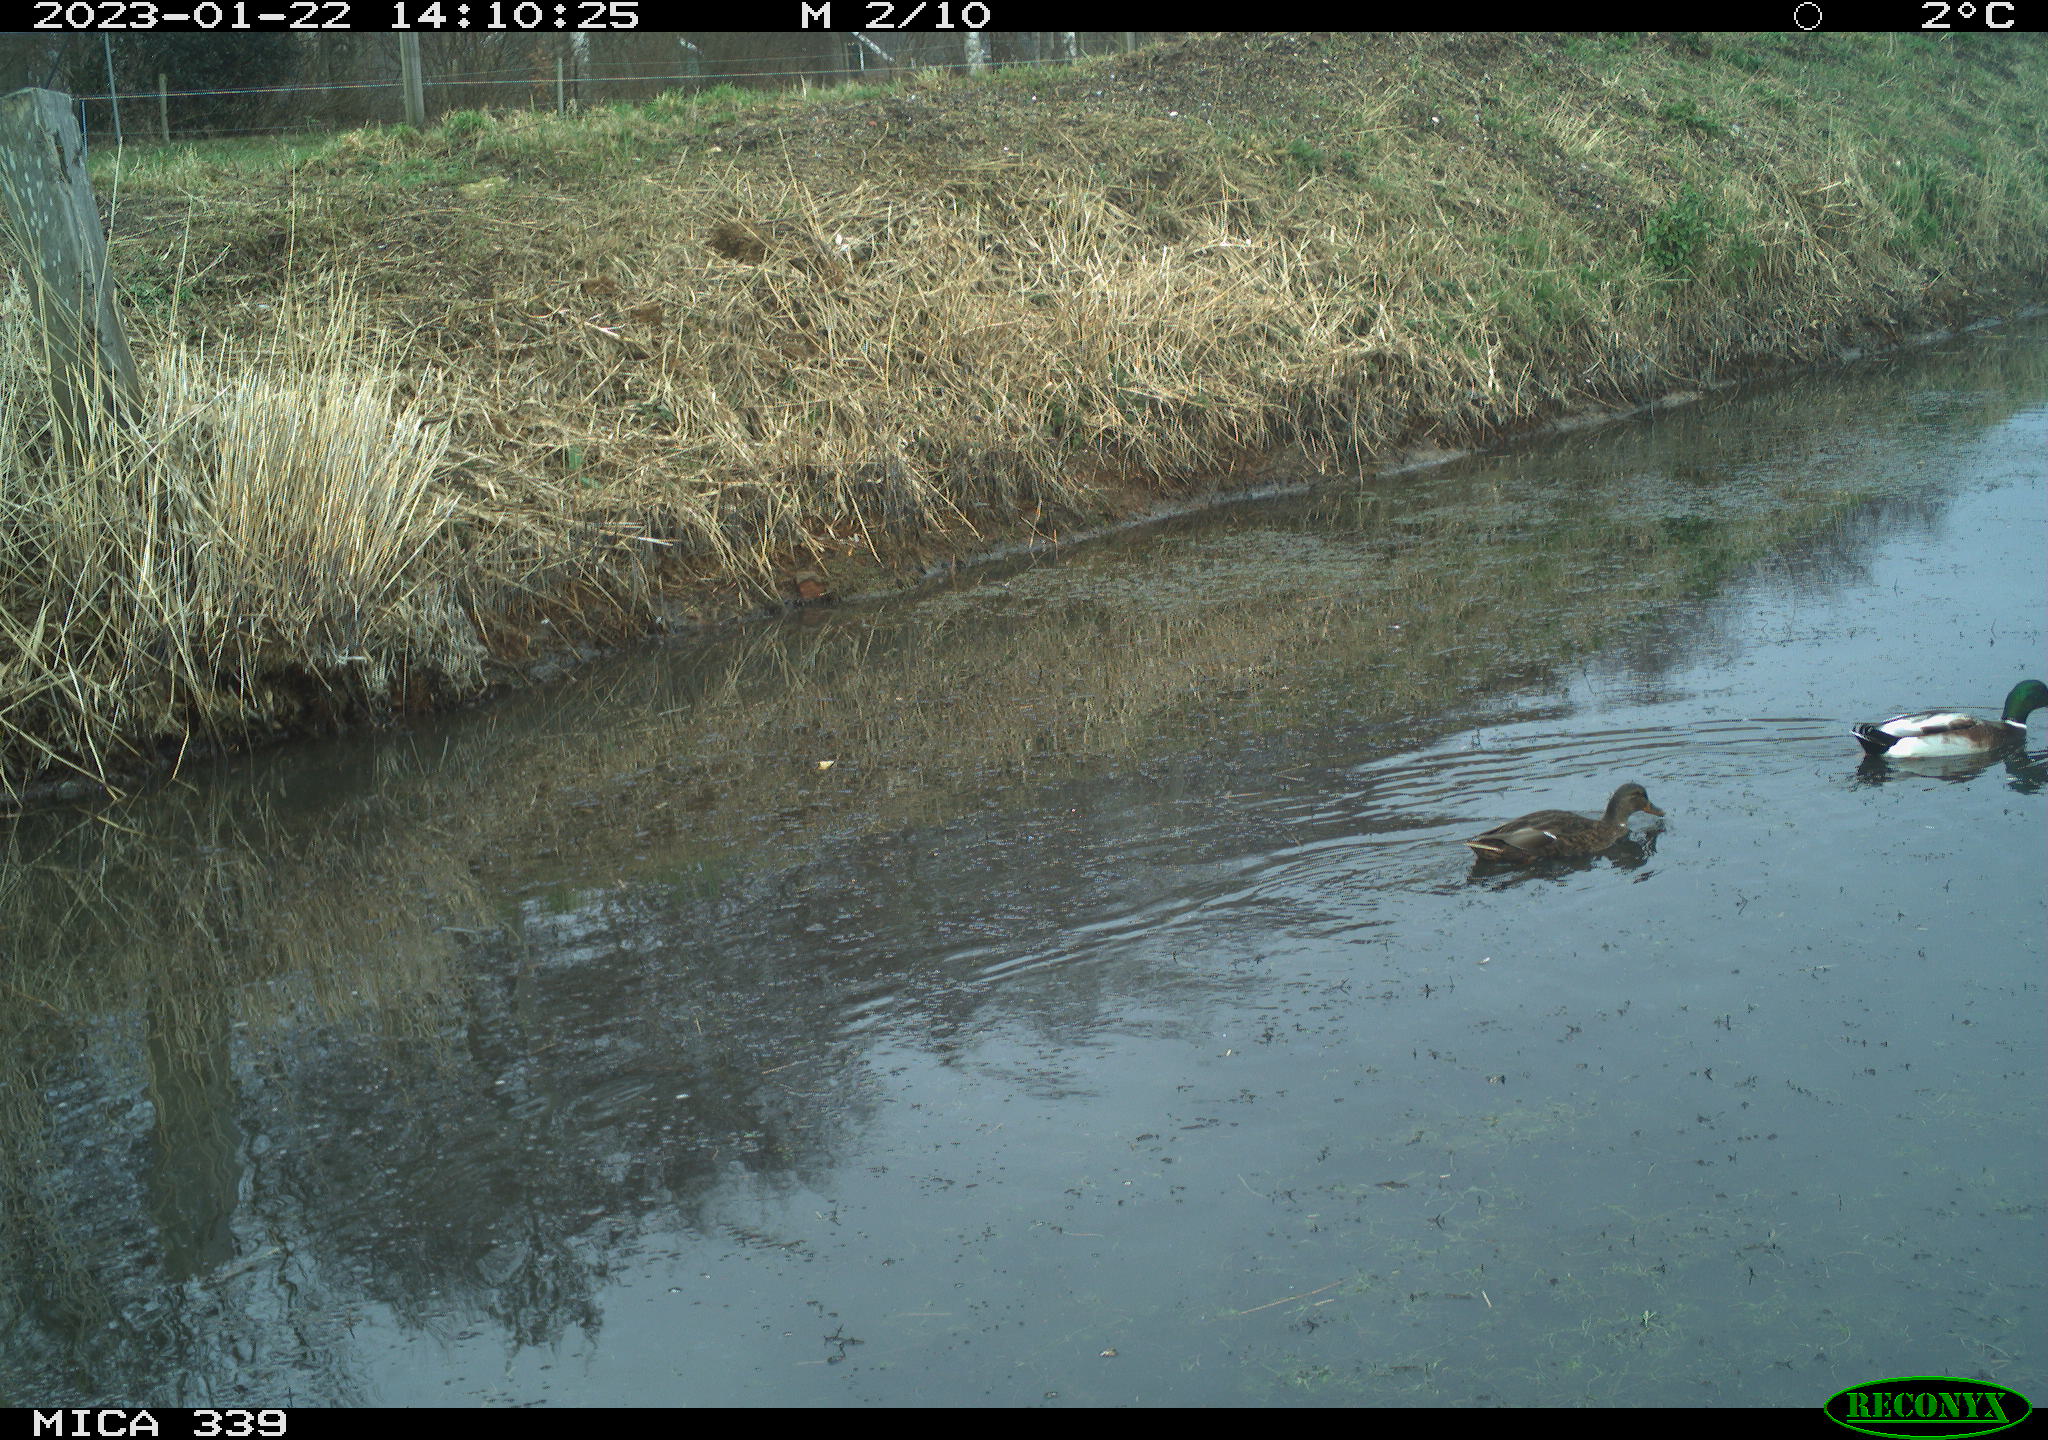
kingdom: Animalia
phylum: Chordata
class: Aves
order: Anseriformes
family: Anatidae
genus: Anas
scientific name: Anas
